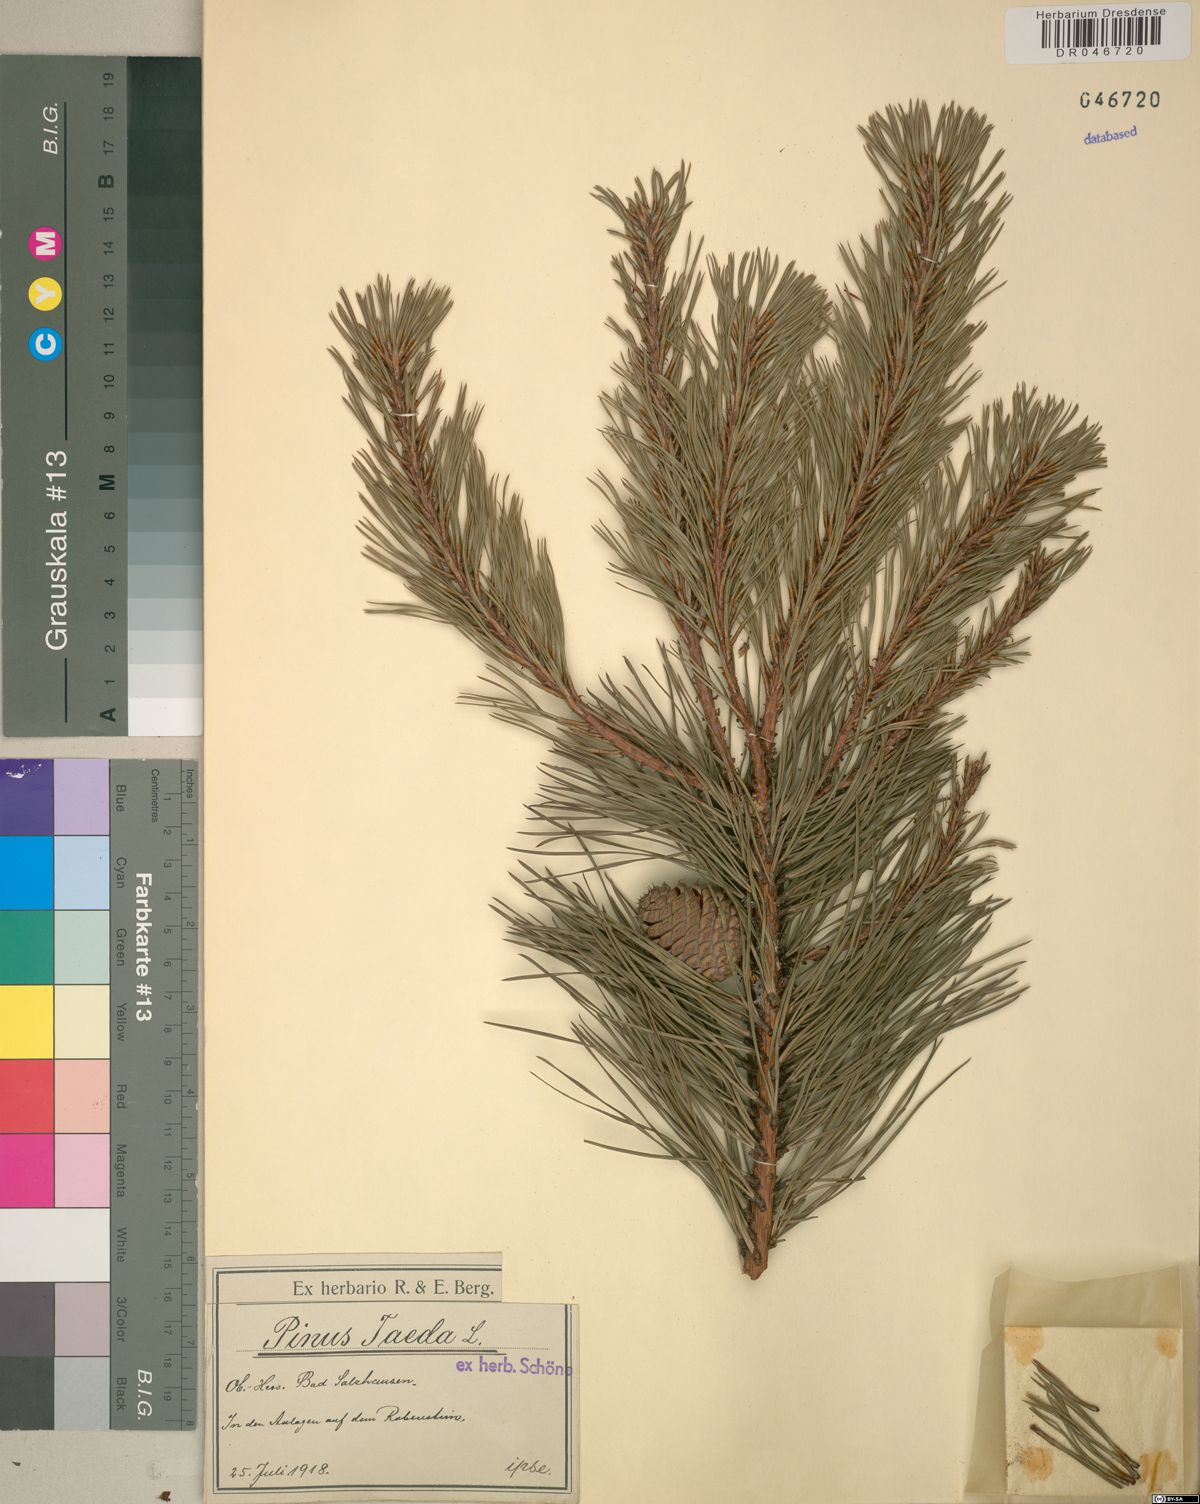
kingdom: Plantae
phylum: Tracheophyta
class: Pinopsida
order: Pinales
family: Pinaceae
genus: Pinus
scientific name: Pinus taeda
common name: Loblolly pine
